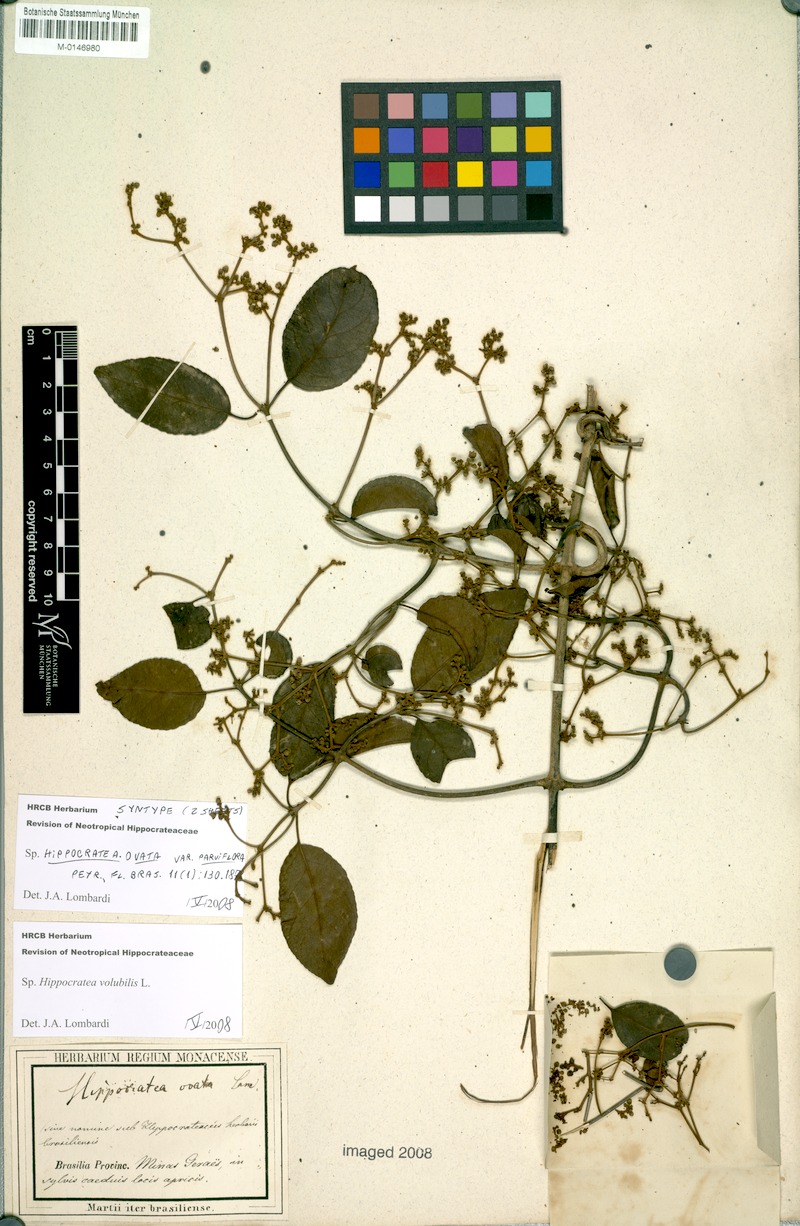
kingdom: Plantae
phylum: Tracheophyta
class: Magnoliopsida
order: Celastrales
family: Celastraceae
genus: Hippocratea
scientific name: Hippocratea volubilis
